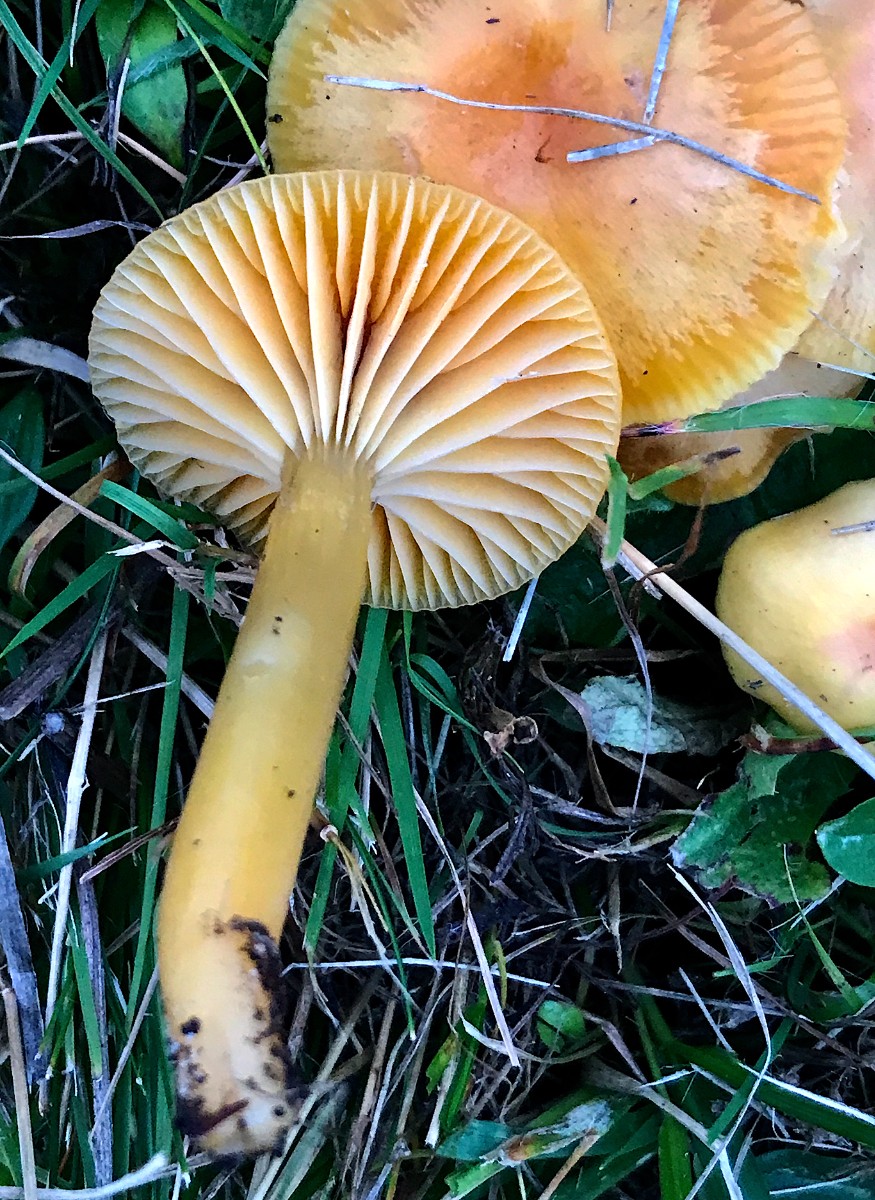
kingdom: Fungi
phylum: Basidiomycota
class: Agaricomycetes
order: Agaricales
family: Hygrophoraceae
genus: Gliophorus
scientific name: Gliophorus laetus
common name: brusk-vokshat
